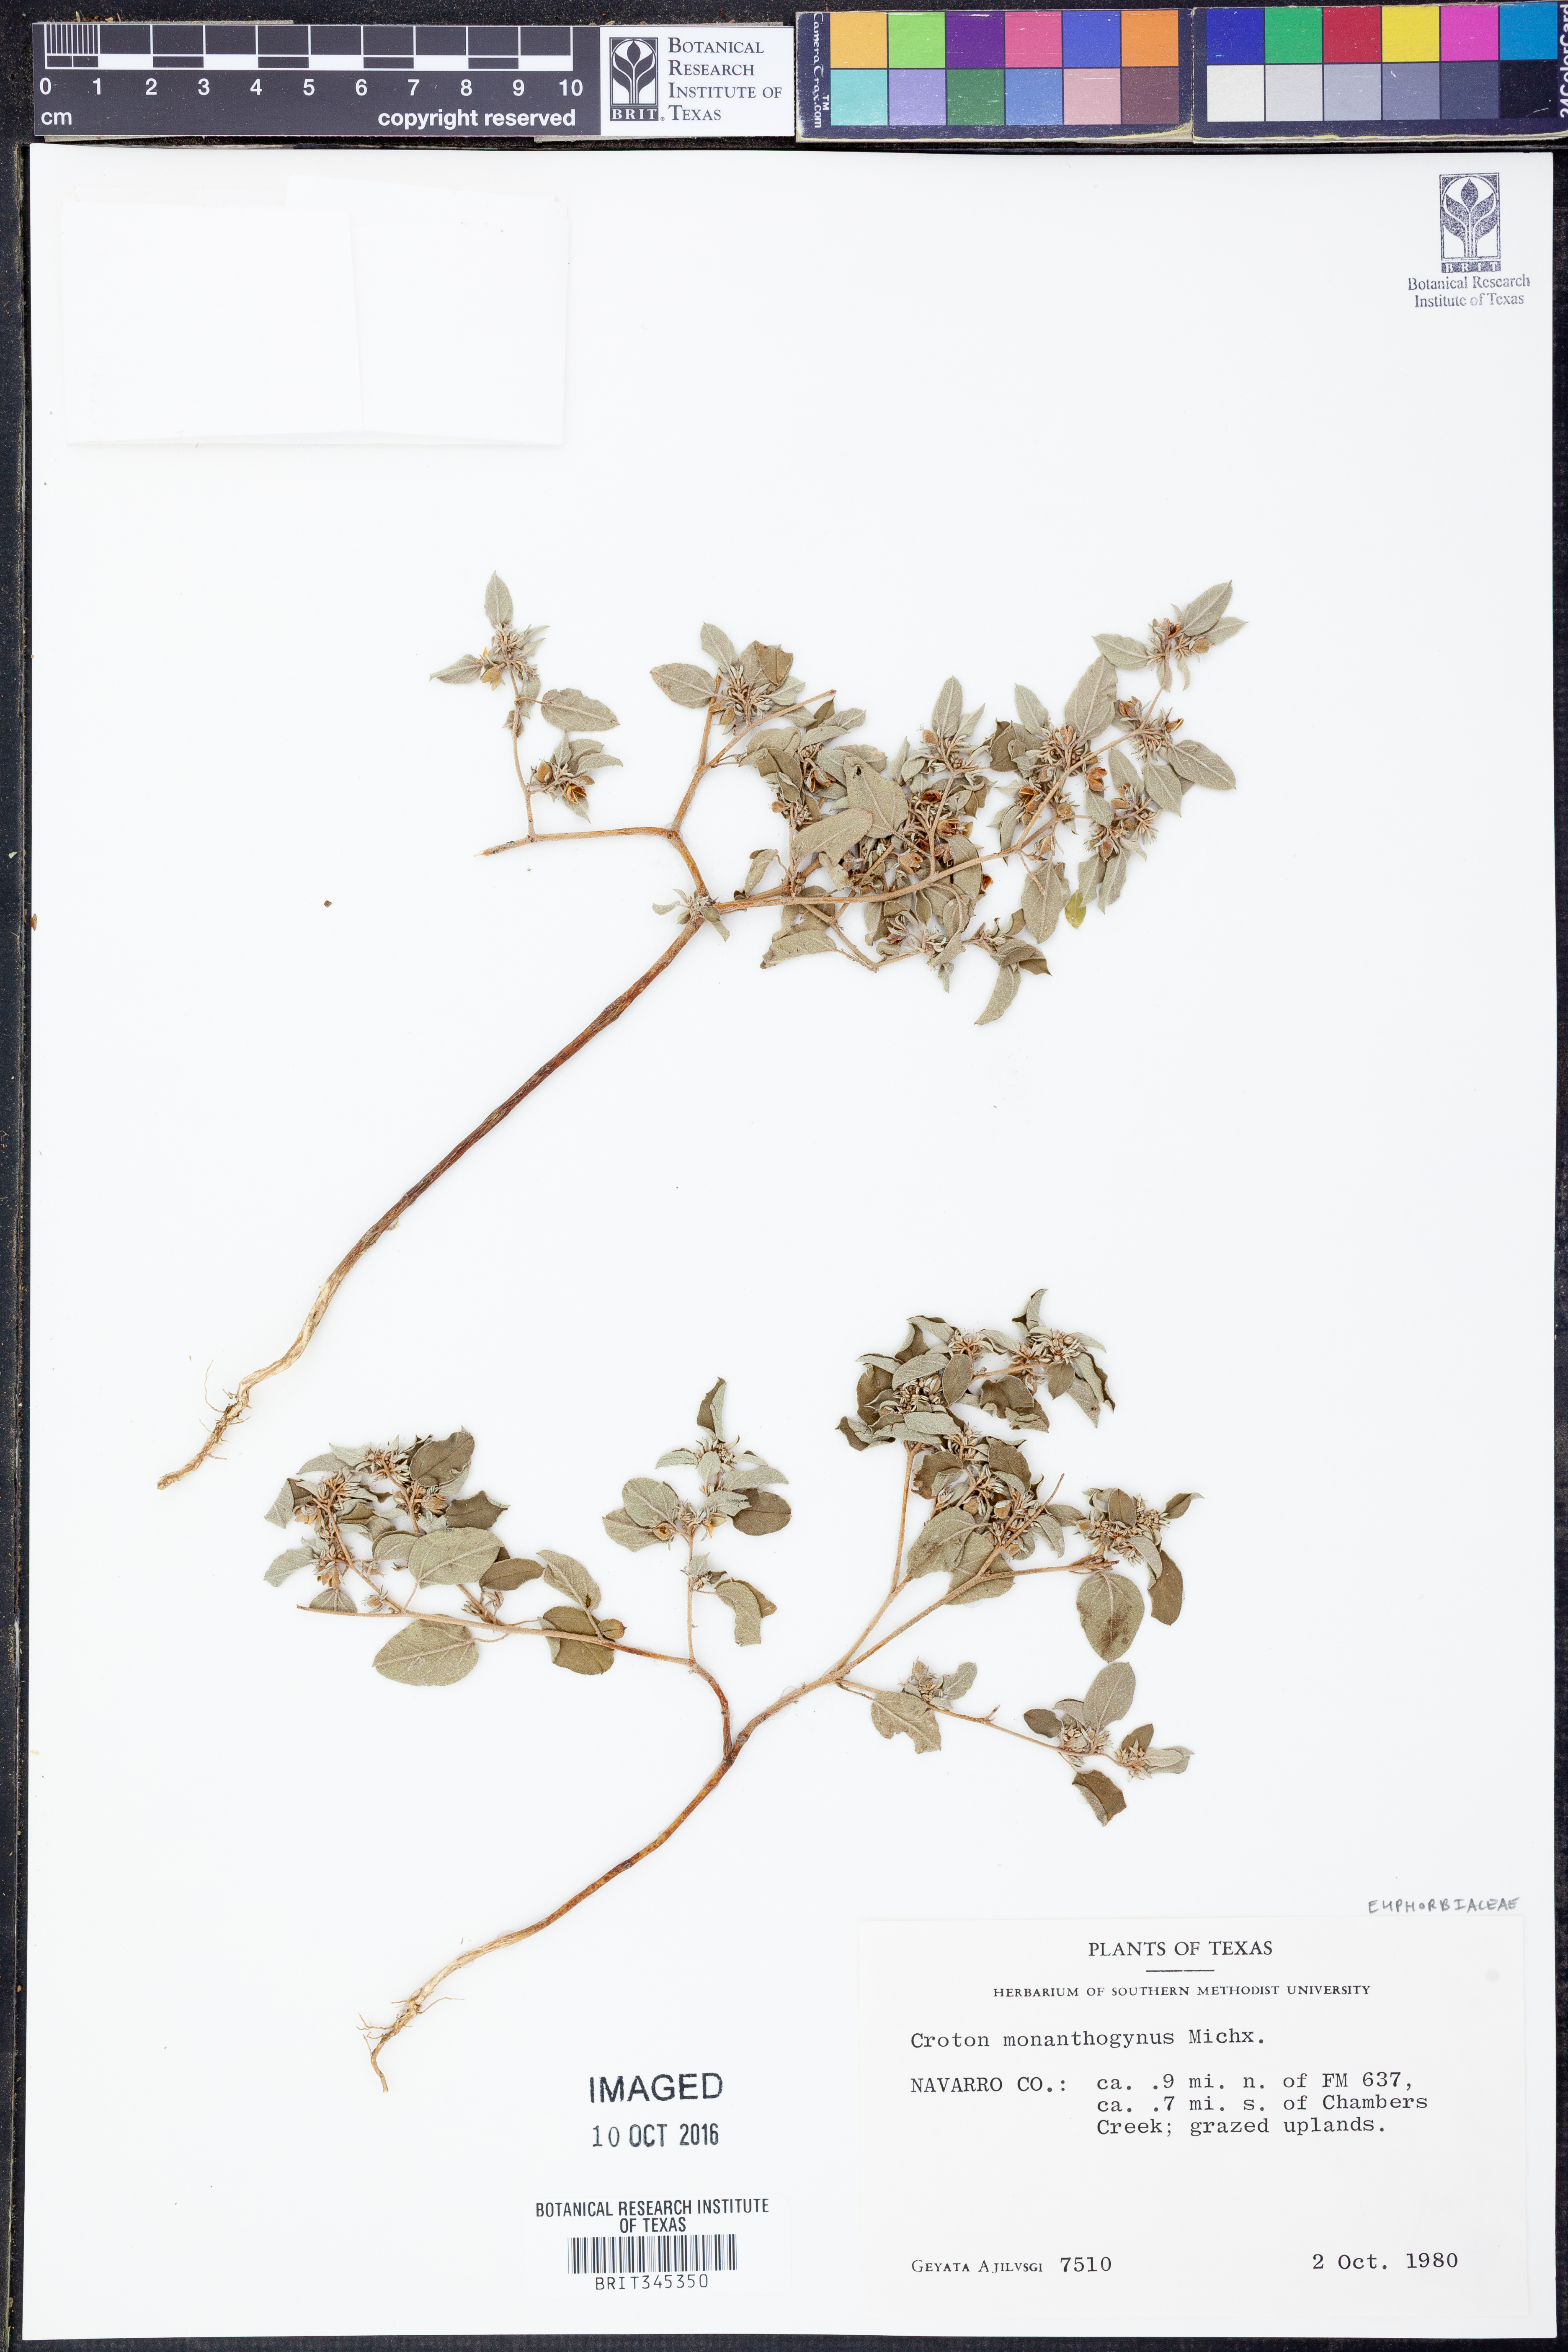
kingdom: Plantae
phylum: Tracheophyta
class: Magnoliopsida
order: Malpighiales
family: Euphorbiaceae
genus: Croton
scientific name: Croton monanthogynus
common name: One-seed croton
